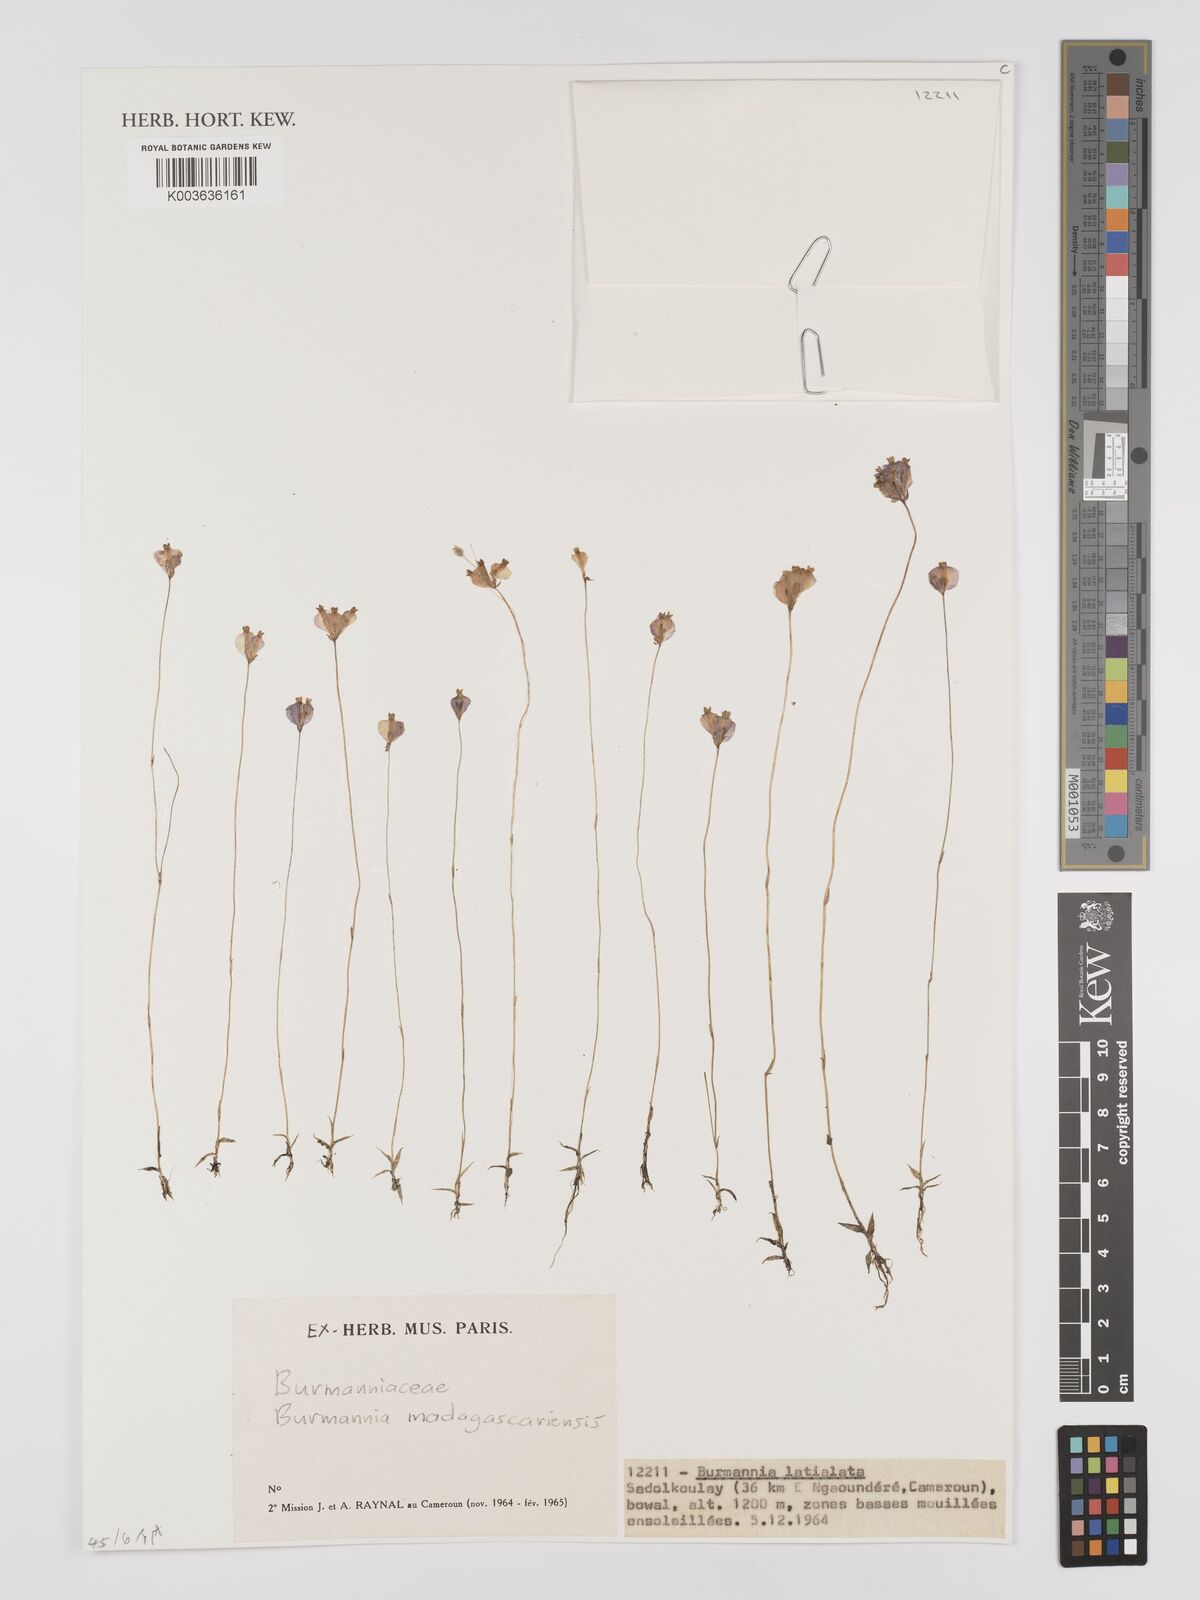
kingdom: Plantae
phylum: Tracheophyta
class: Liliopsida
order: Dioscoreales
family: Burmanniaceae
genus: Burmannia
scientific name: Burmannia madagascariensis
